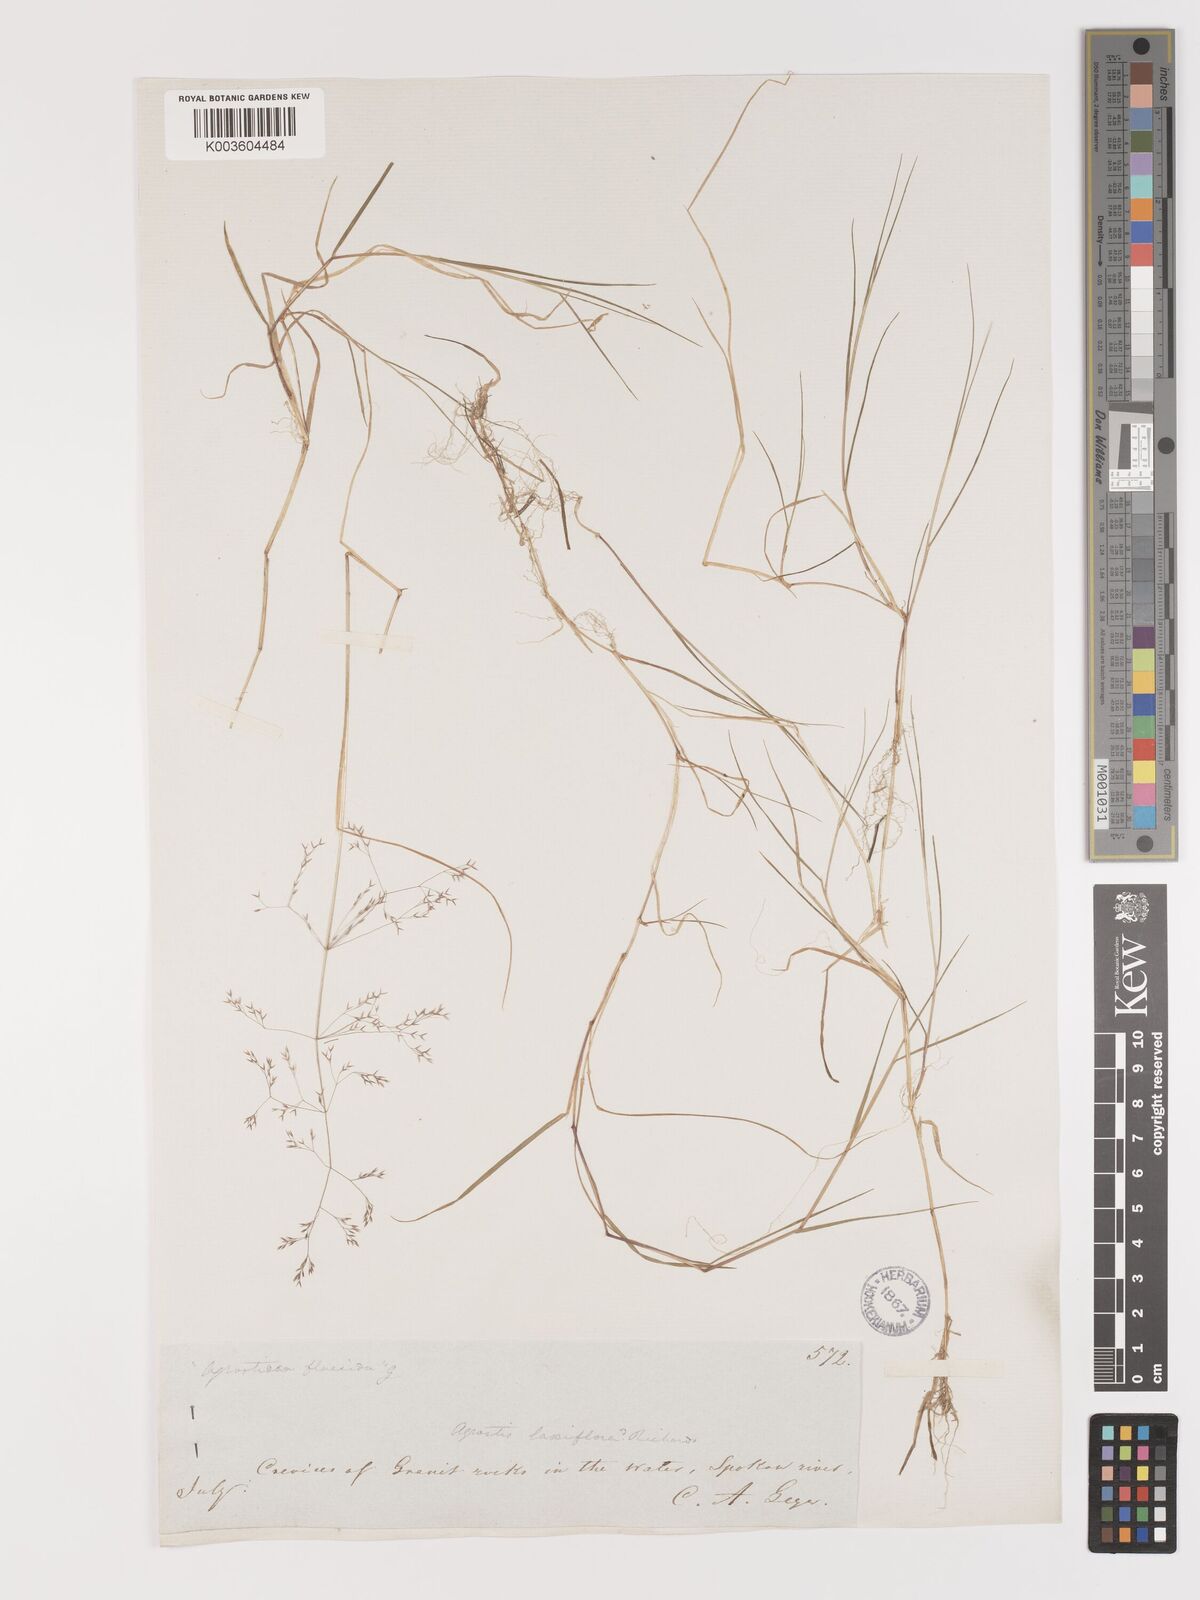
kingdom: Plantae
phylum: Tracheophyta
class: Liliopsida
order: Poales
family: Poaceae
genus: Agrostis
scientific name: Agrostis hyemalis
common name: Small bent
